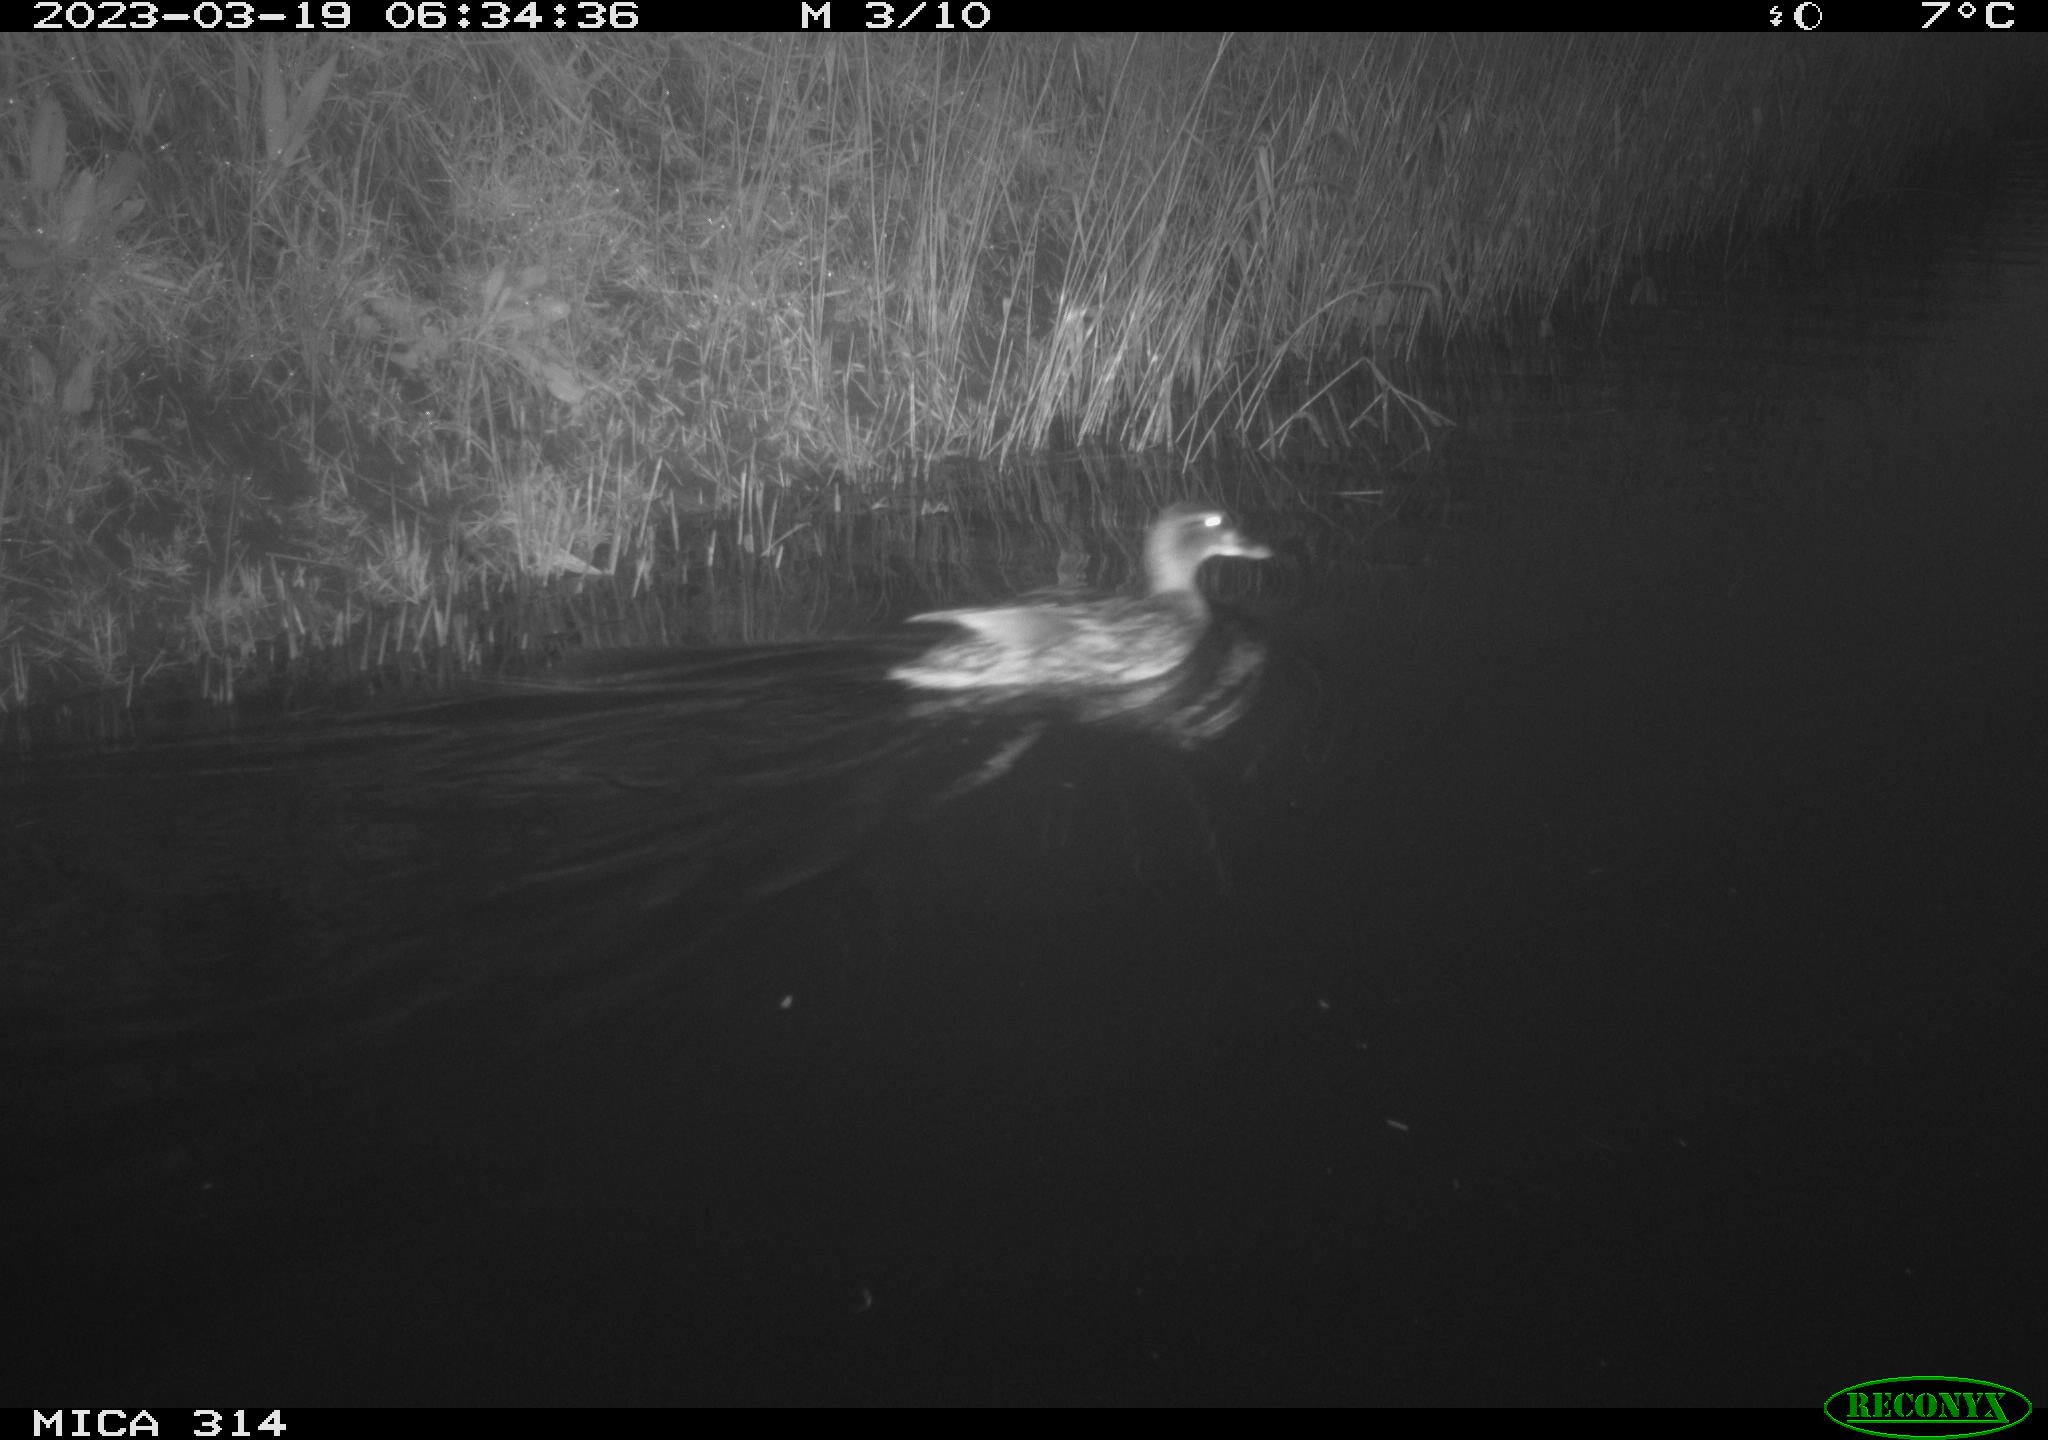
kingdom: Animalia
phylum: Chordata
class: Aves
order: Anseriformes
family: Anatidae
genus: Anas
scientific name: Anas
